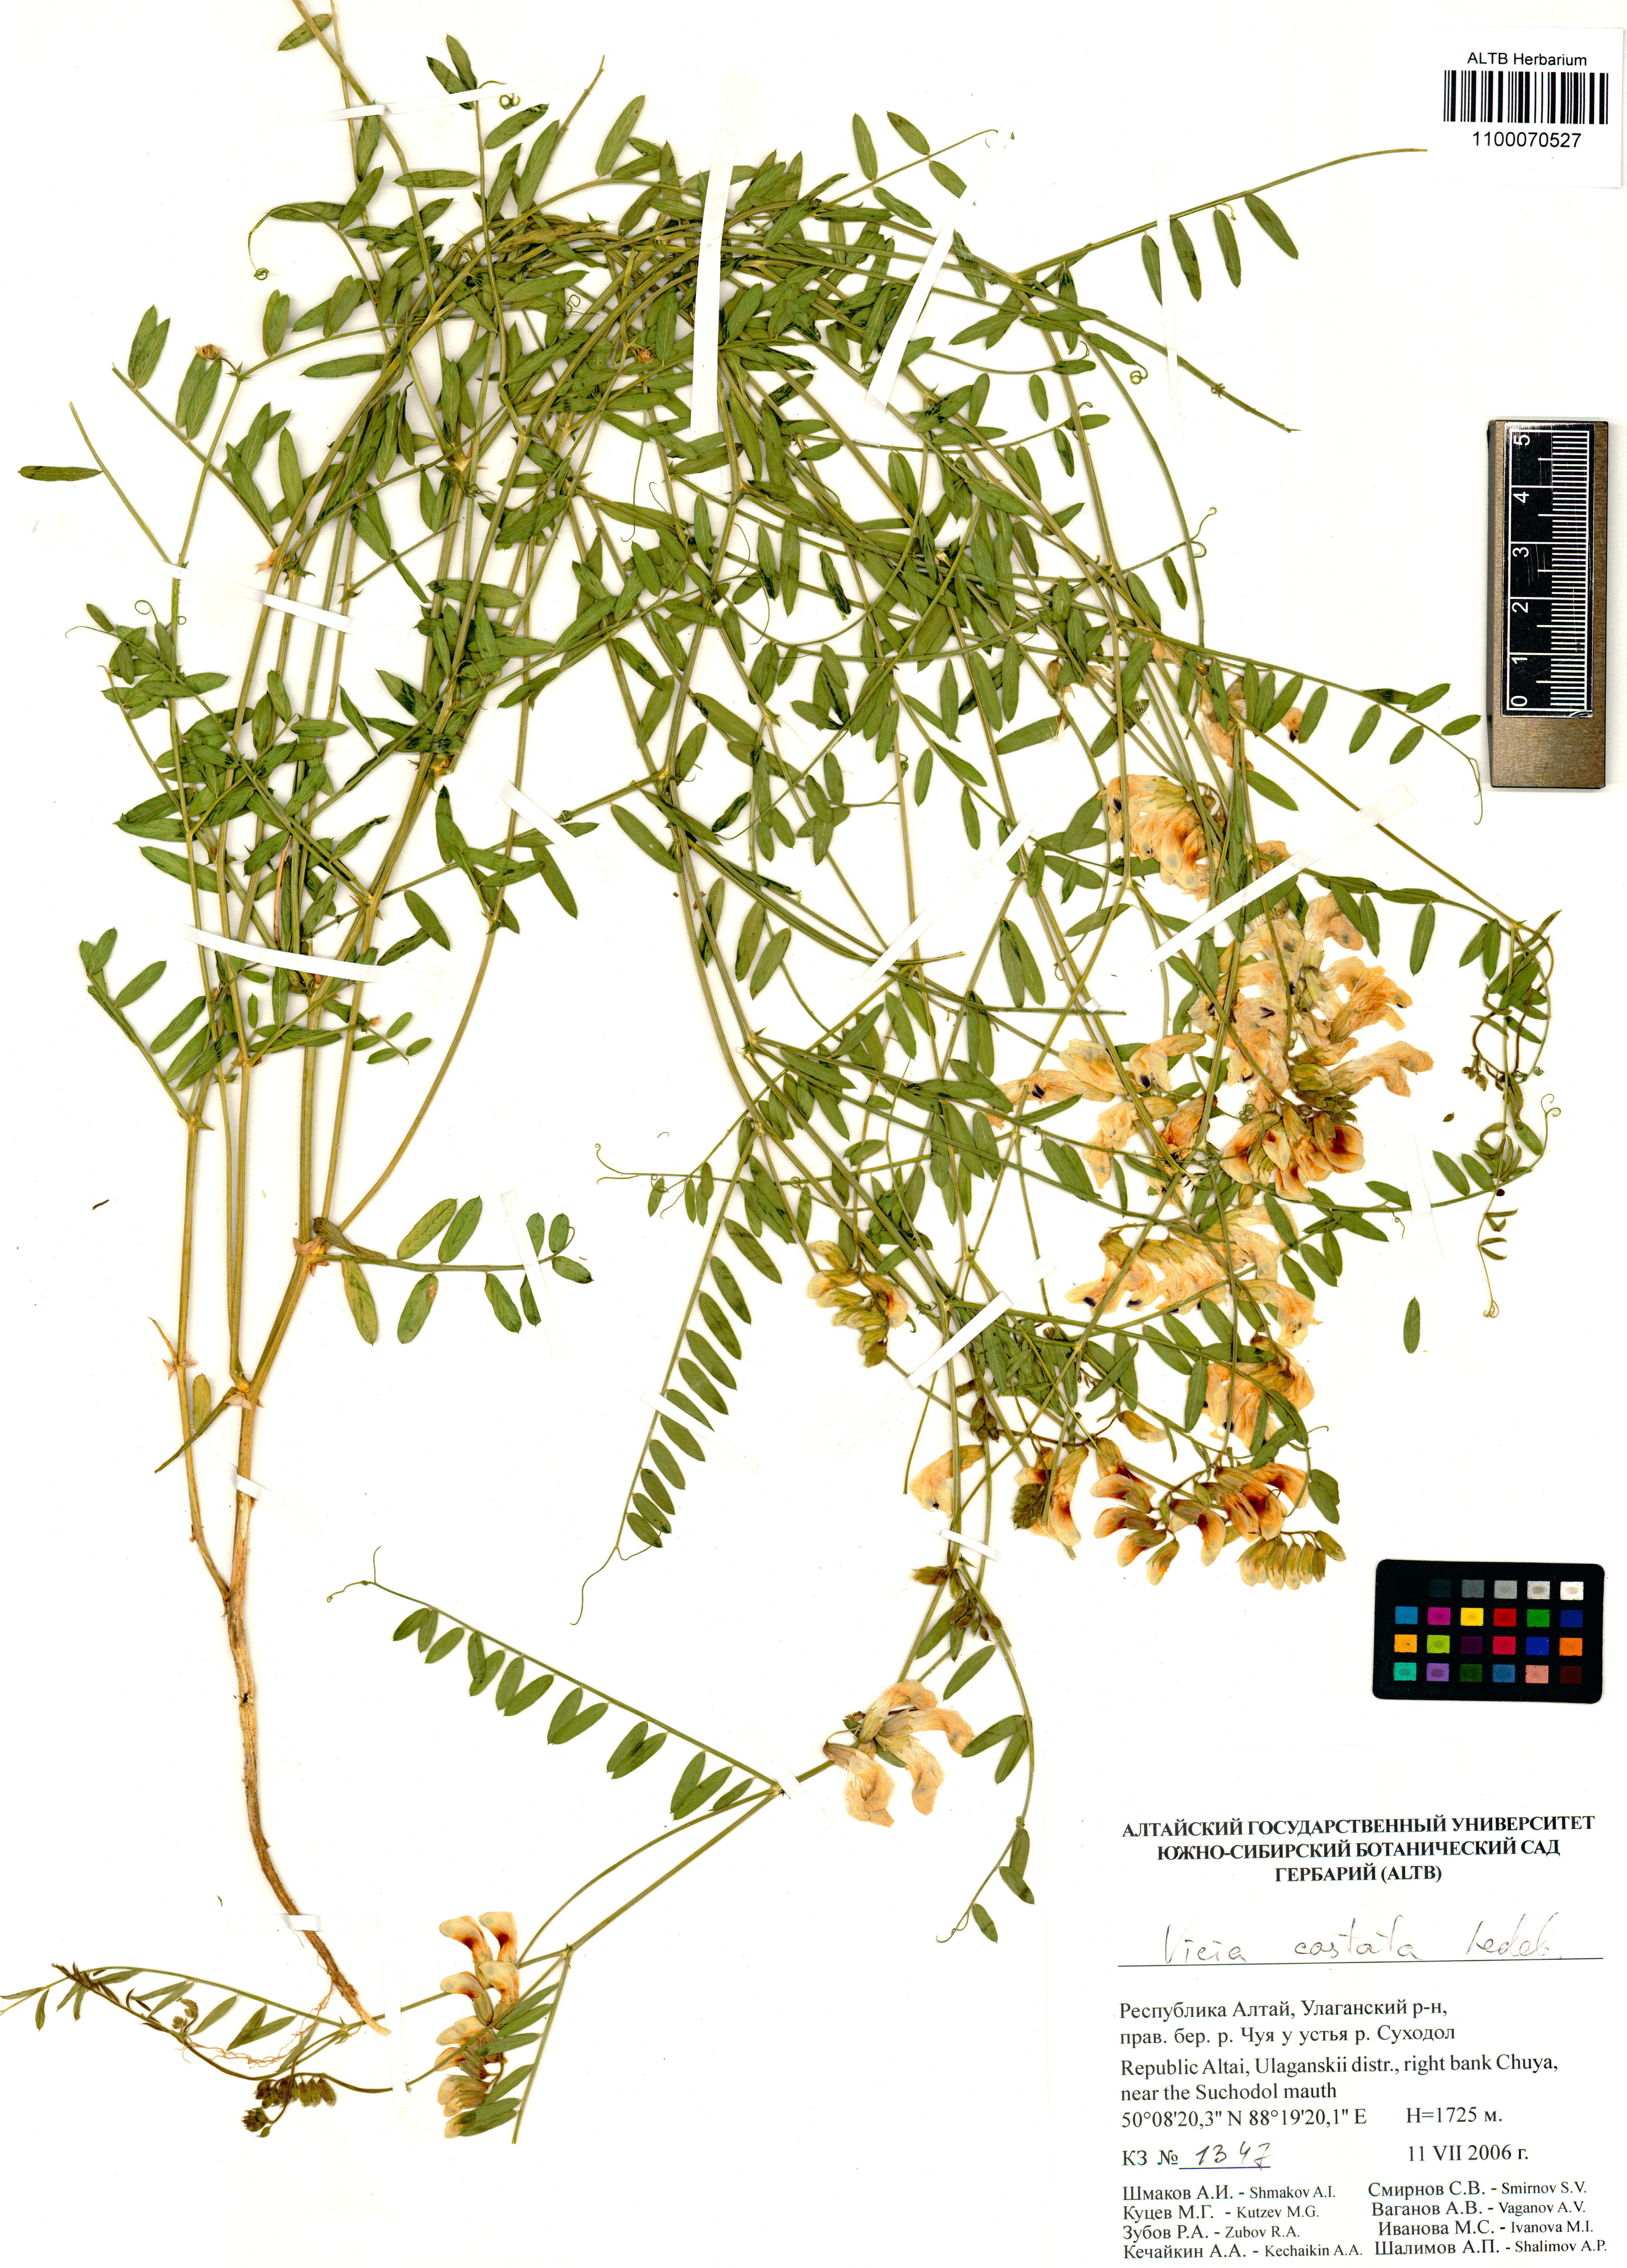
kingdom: Plantae
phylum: Tracheophyta
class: Magnoliopsida
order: Fabales
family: Fabaceae
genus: Vicia
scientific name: Vicia costata
